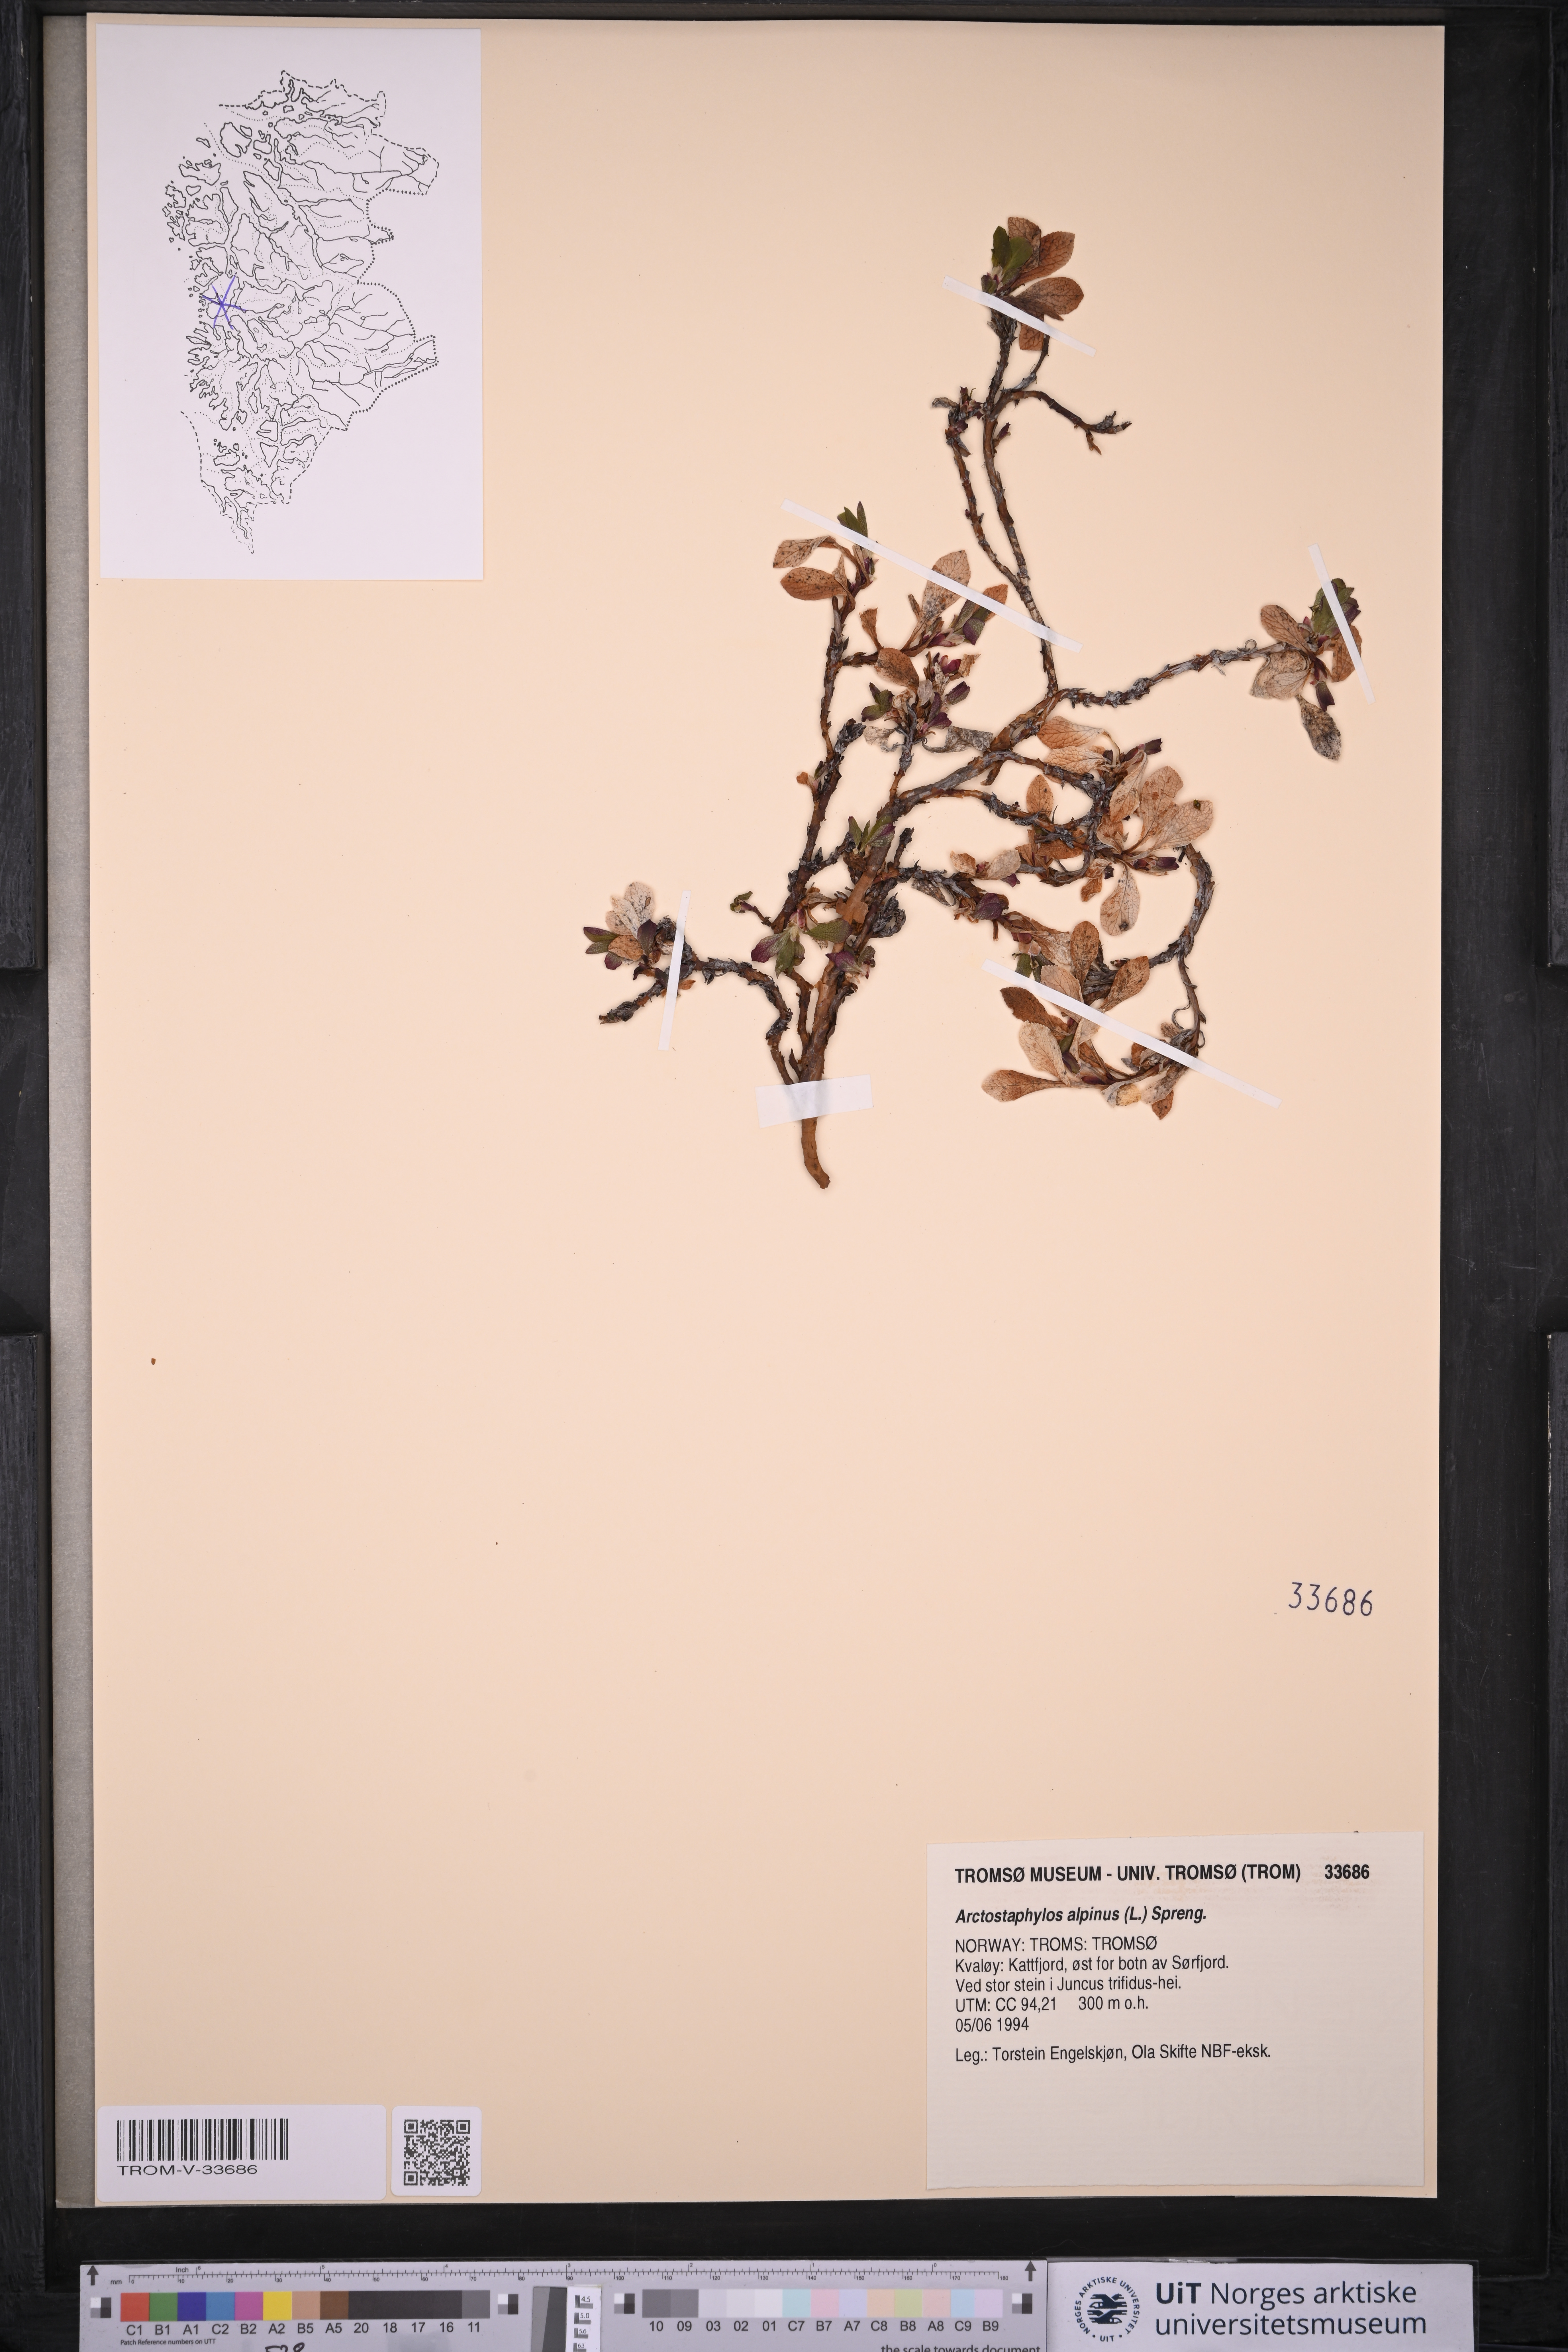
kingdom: Plantae
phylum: Tracheophyta
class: Magnoliopsida
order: Ericales
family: Ericaceae
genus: Arctostaphylos
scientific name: Arctostaphylos alpinus
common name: Alpine bearberry
